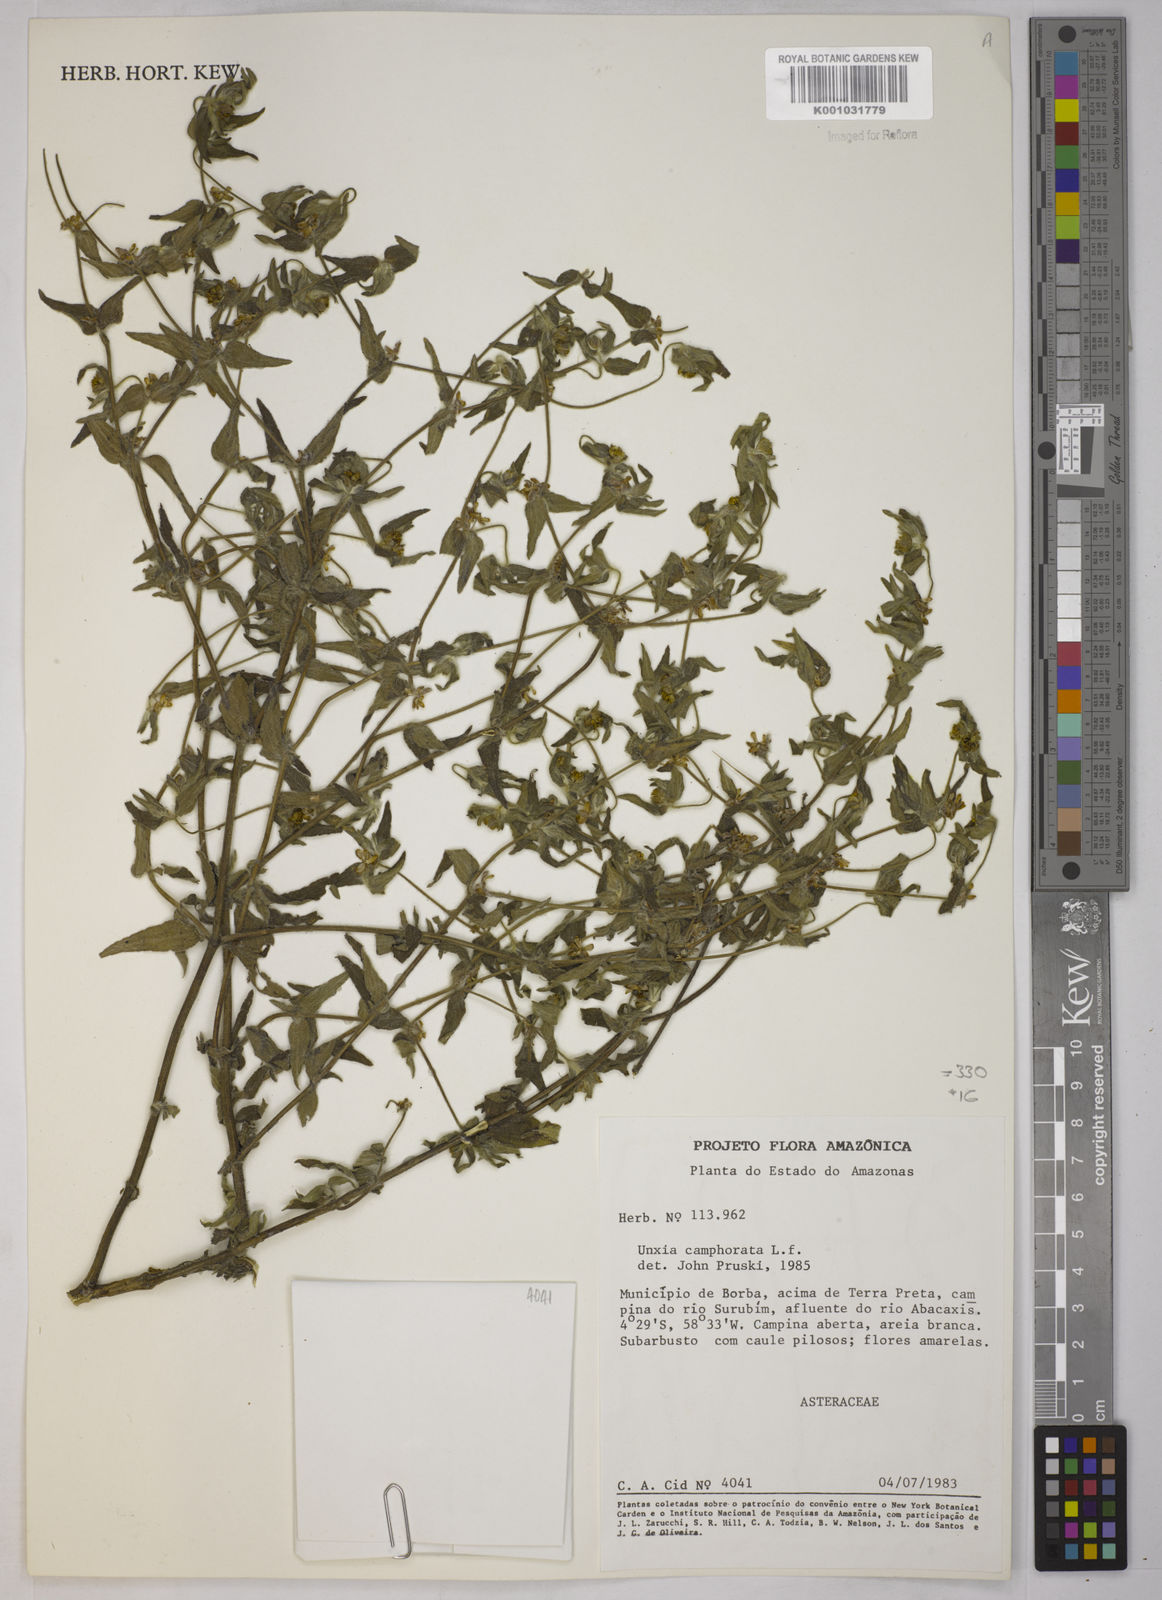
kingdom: Plantae
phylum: Tracheophyta
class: Magnoliopsida
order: Asterales
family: Asteraceae
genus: Unxia
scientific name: Unxia camphorata
